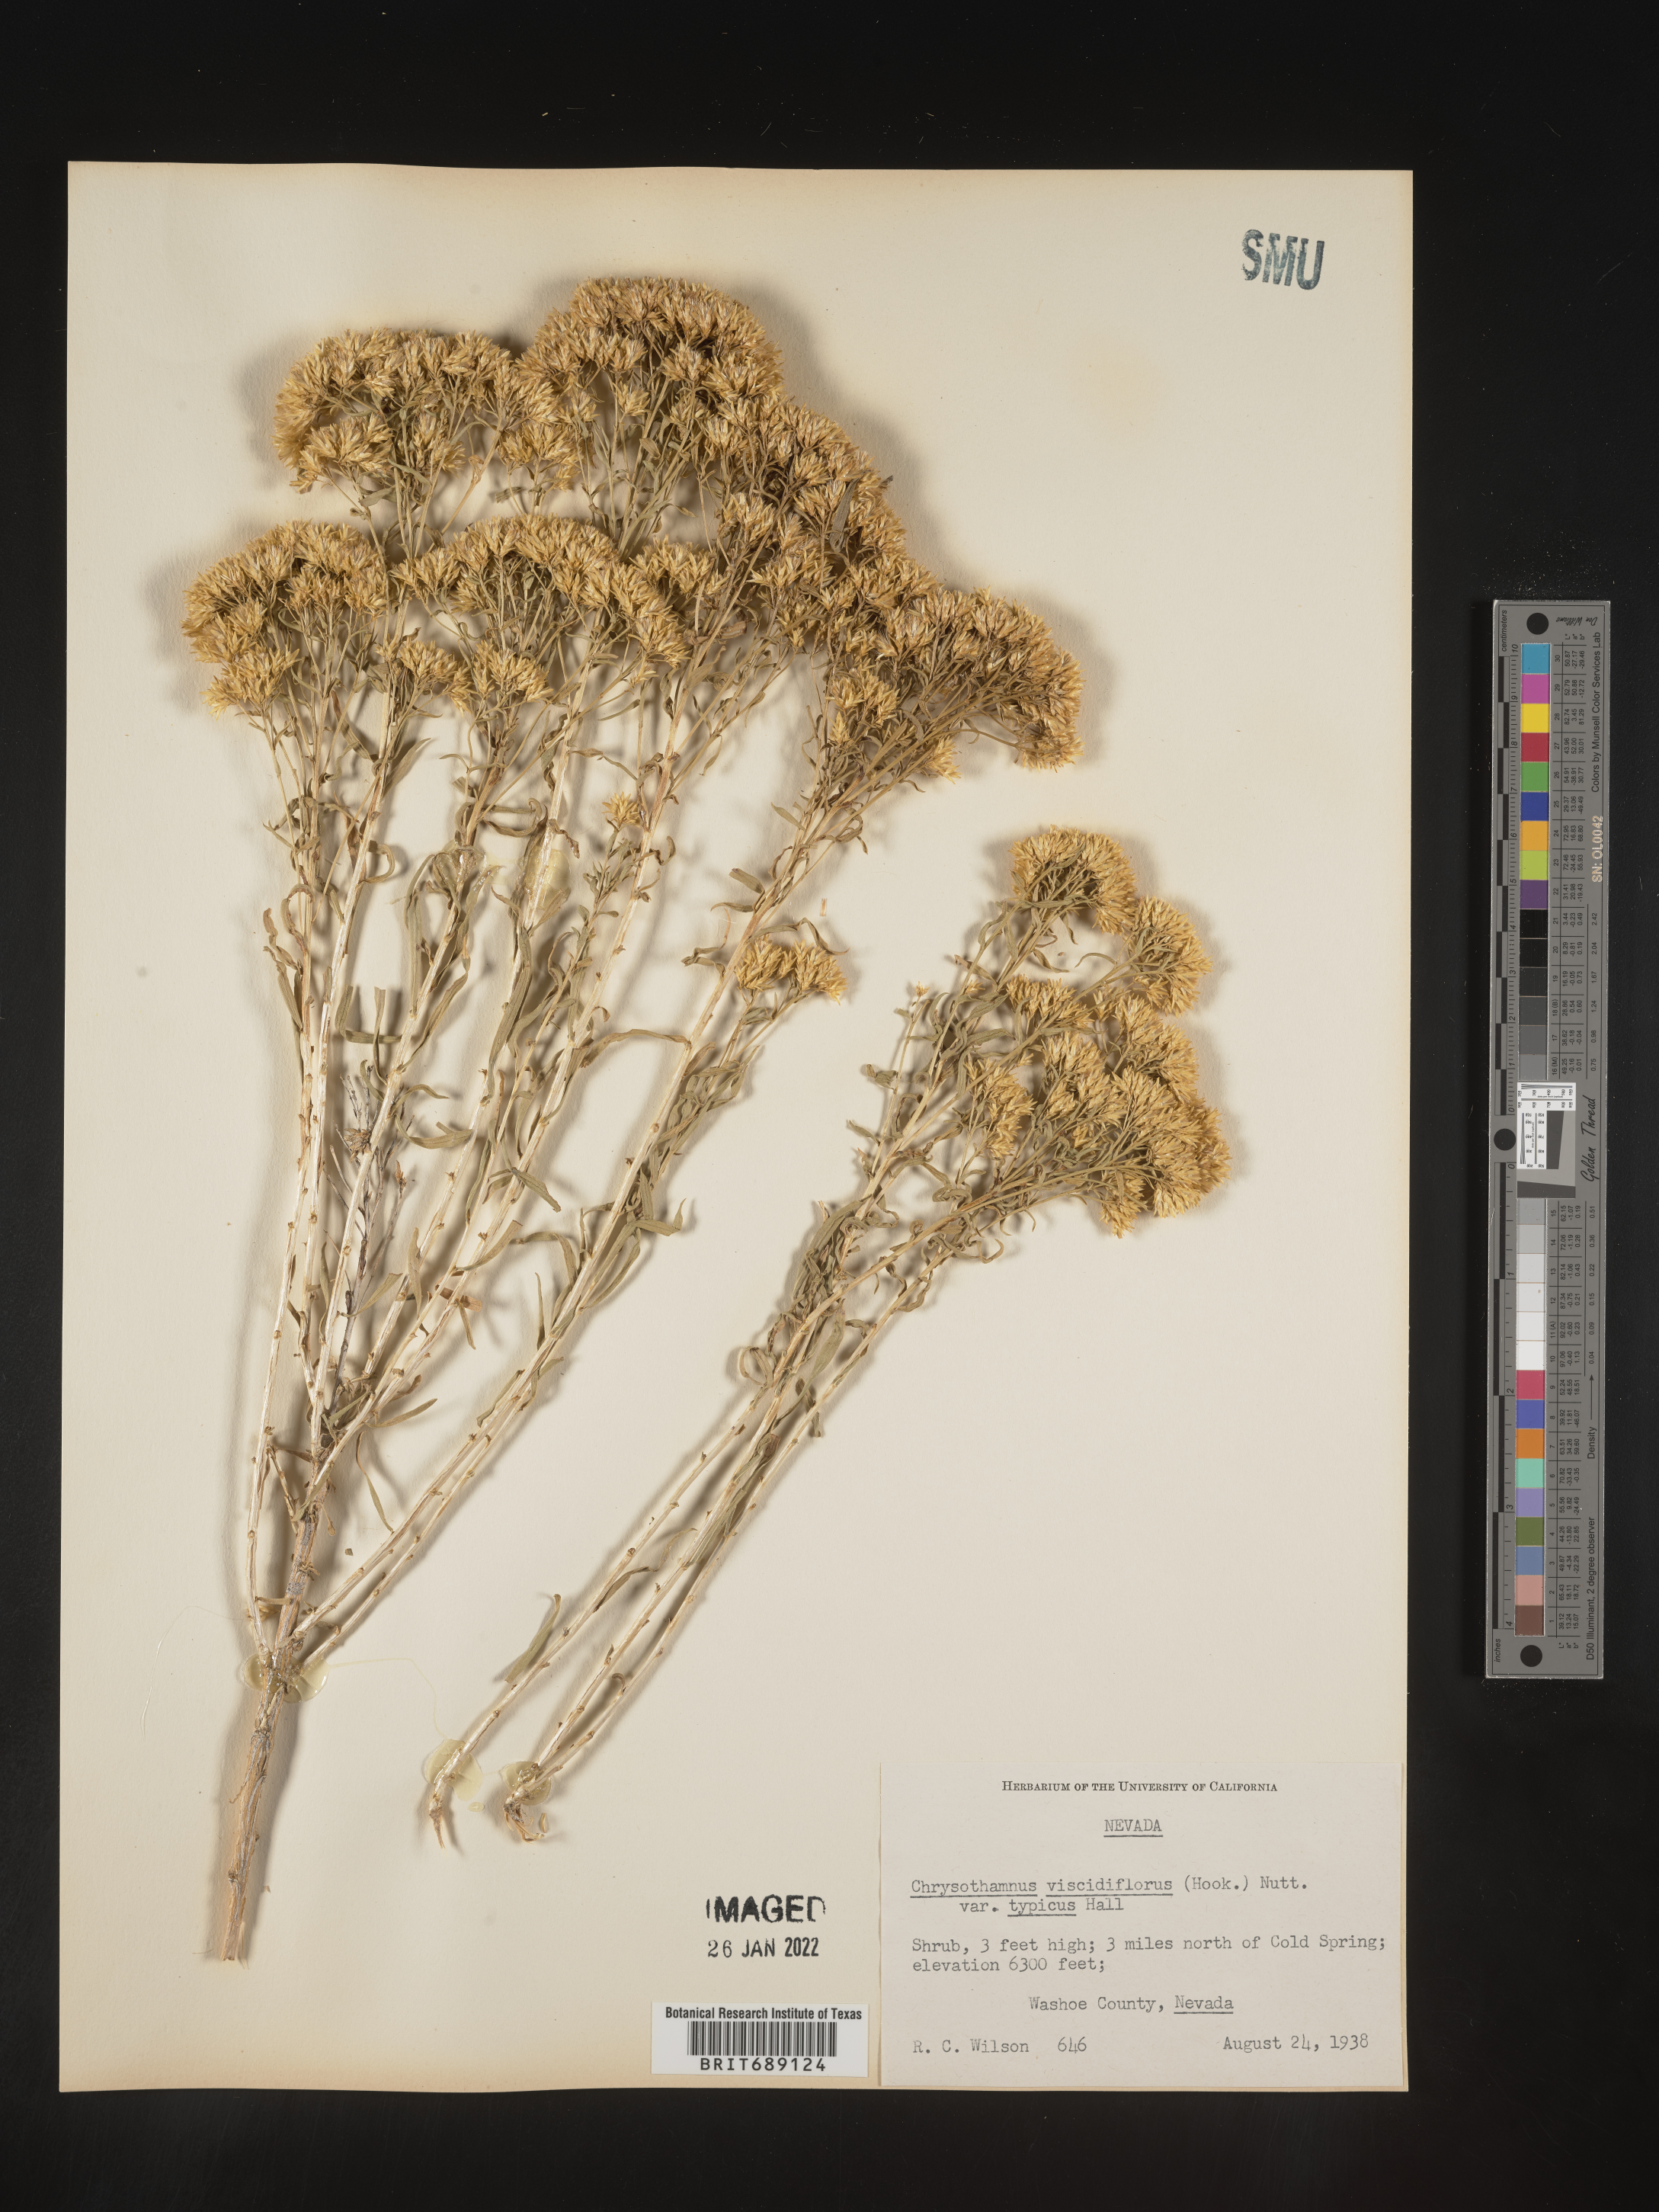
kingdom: Plantae
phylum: Tracheophyta
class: Magnoliopsida
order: Asterales
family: Asteraceae
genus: Chrysothamnus
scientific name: Chrysothamnus viscidiflorus
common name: Yellow rabbitbrush
